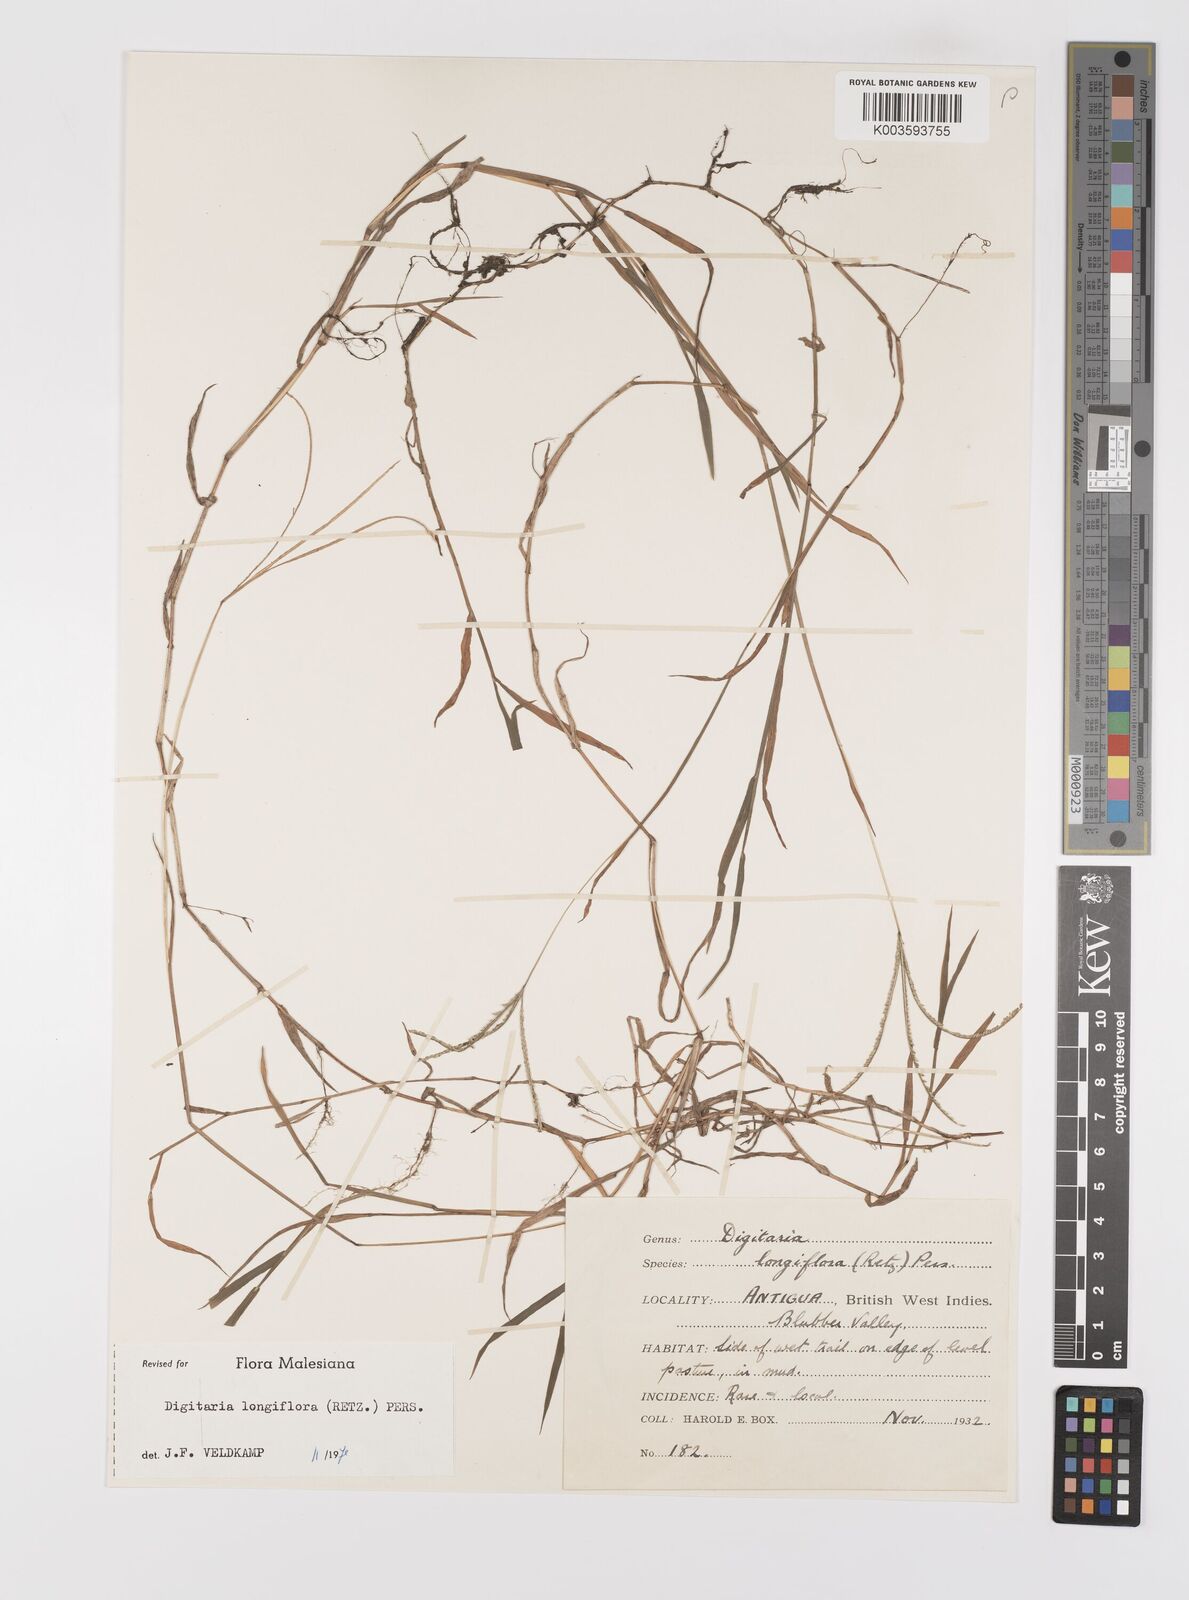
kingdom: Plantae
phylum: Tracheophyta
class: Liliopsida
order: Poales
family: Poaceae
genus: Digitaria
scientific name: Digitaria longiflora
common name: Wire crabgrass
